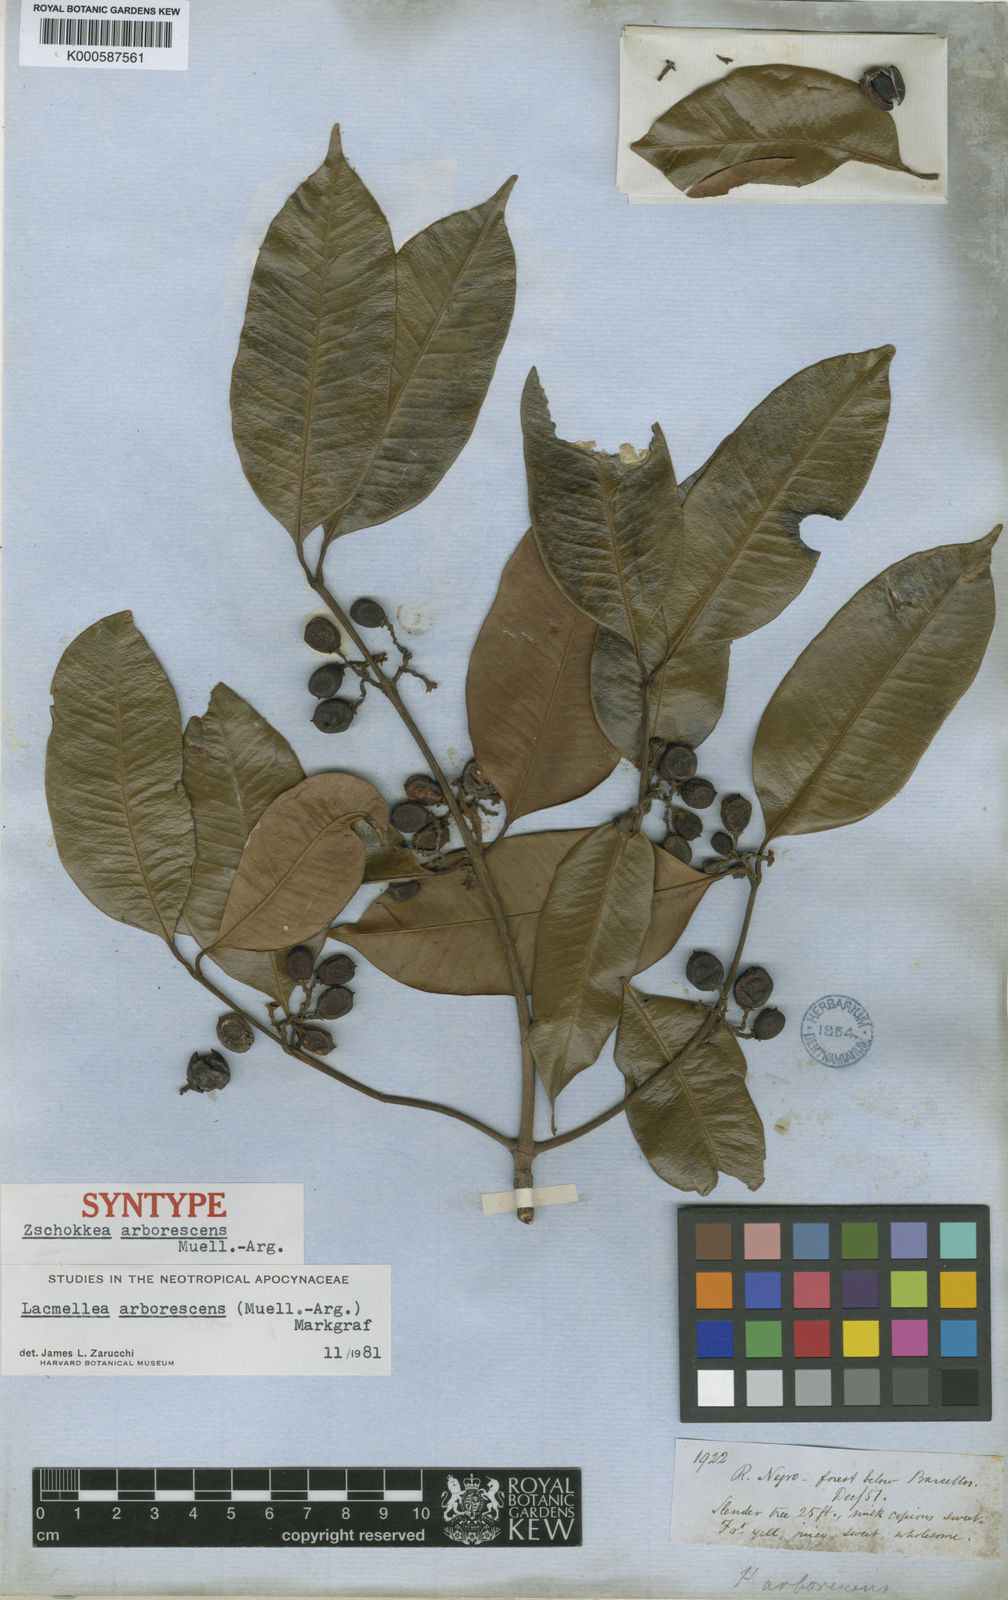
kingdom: Plantae
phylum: Tracheophyta
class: Magnoliopsida
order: Gentianales
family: Apocynaceae
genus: Lacmellea
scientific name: Lacmellea
